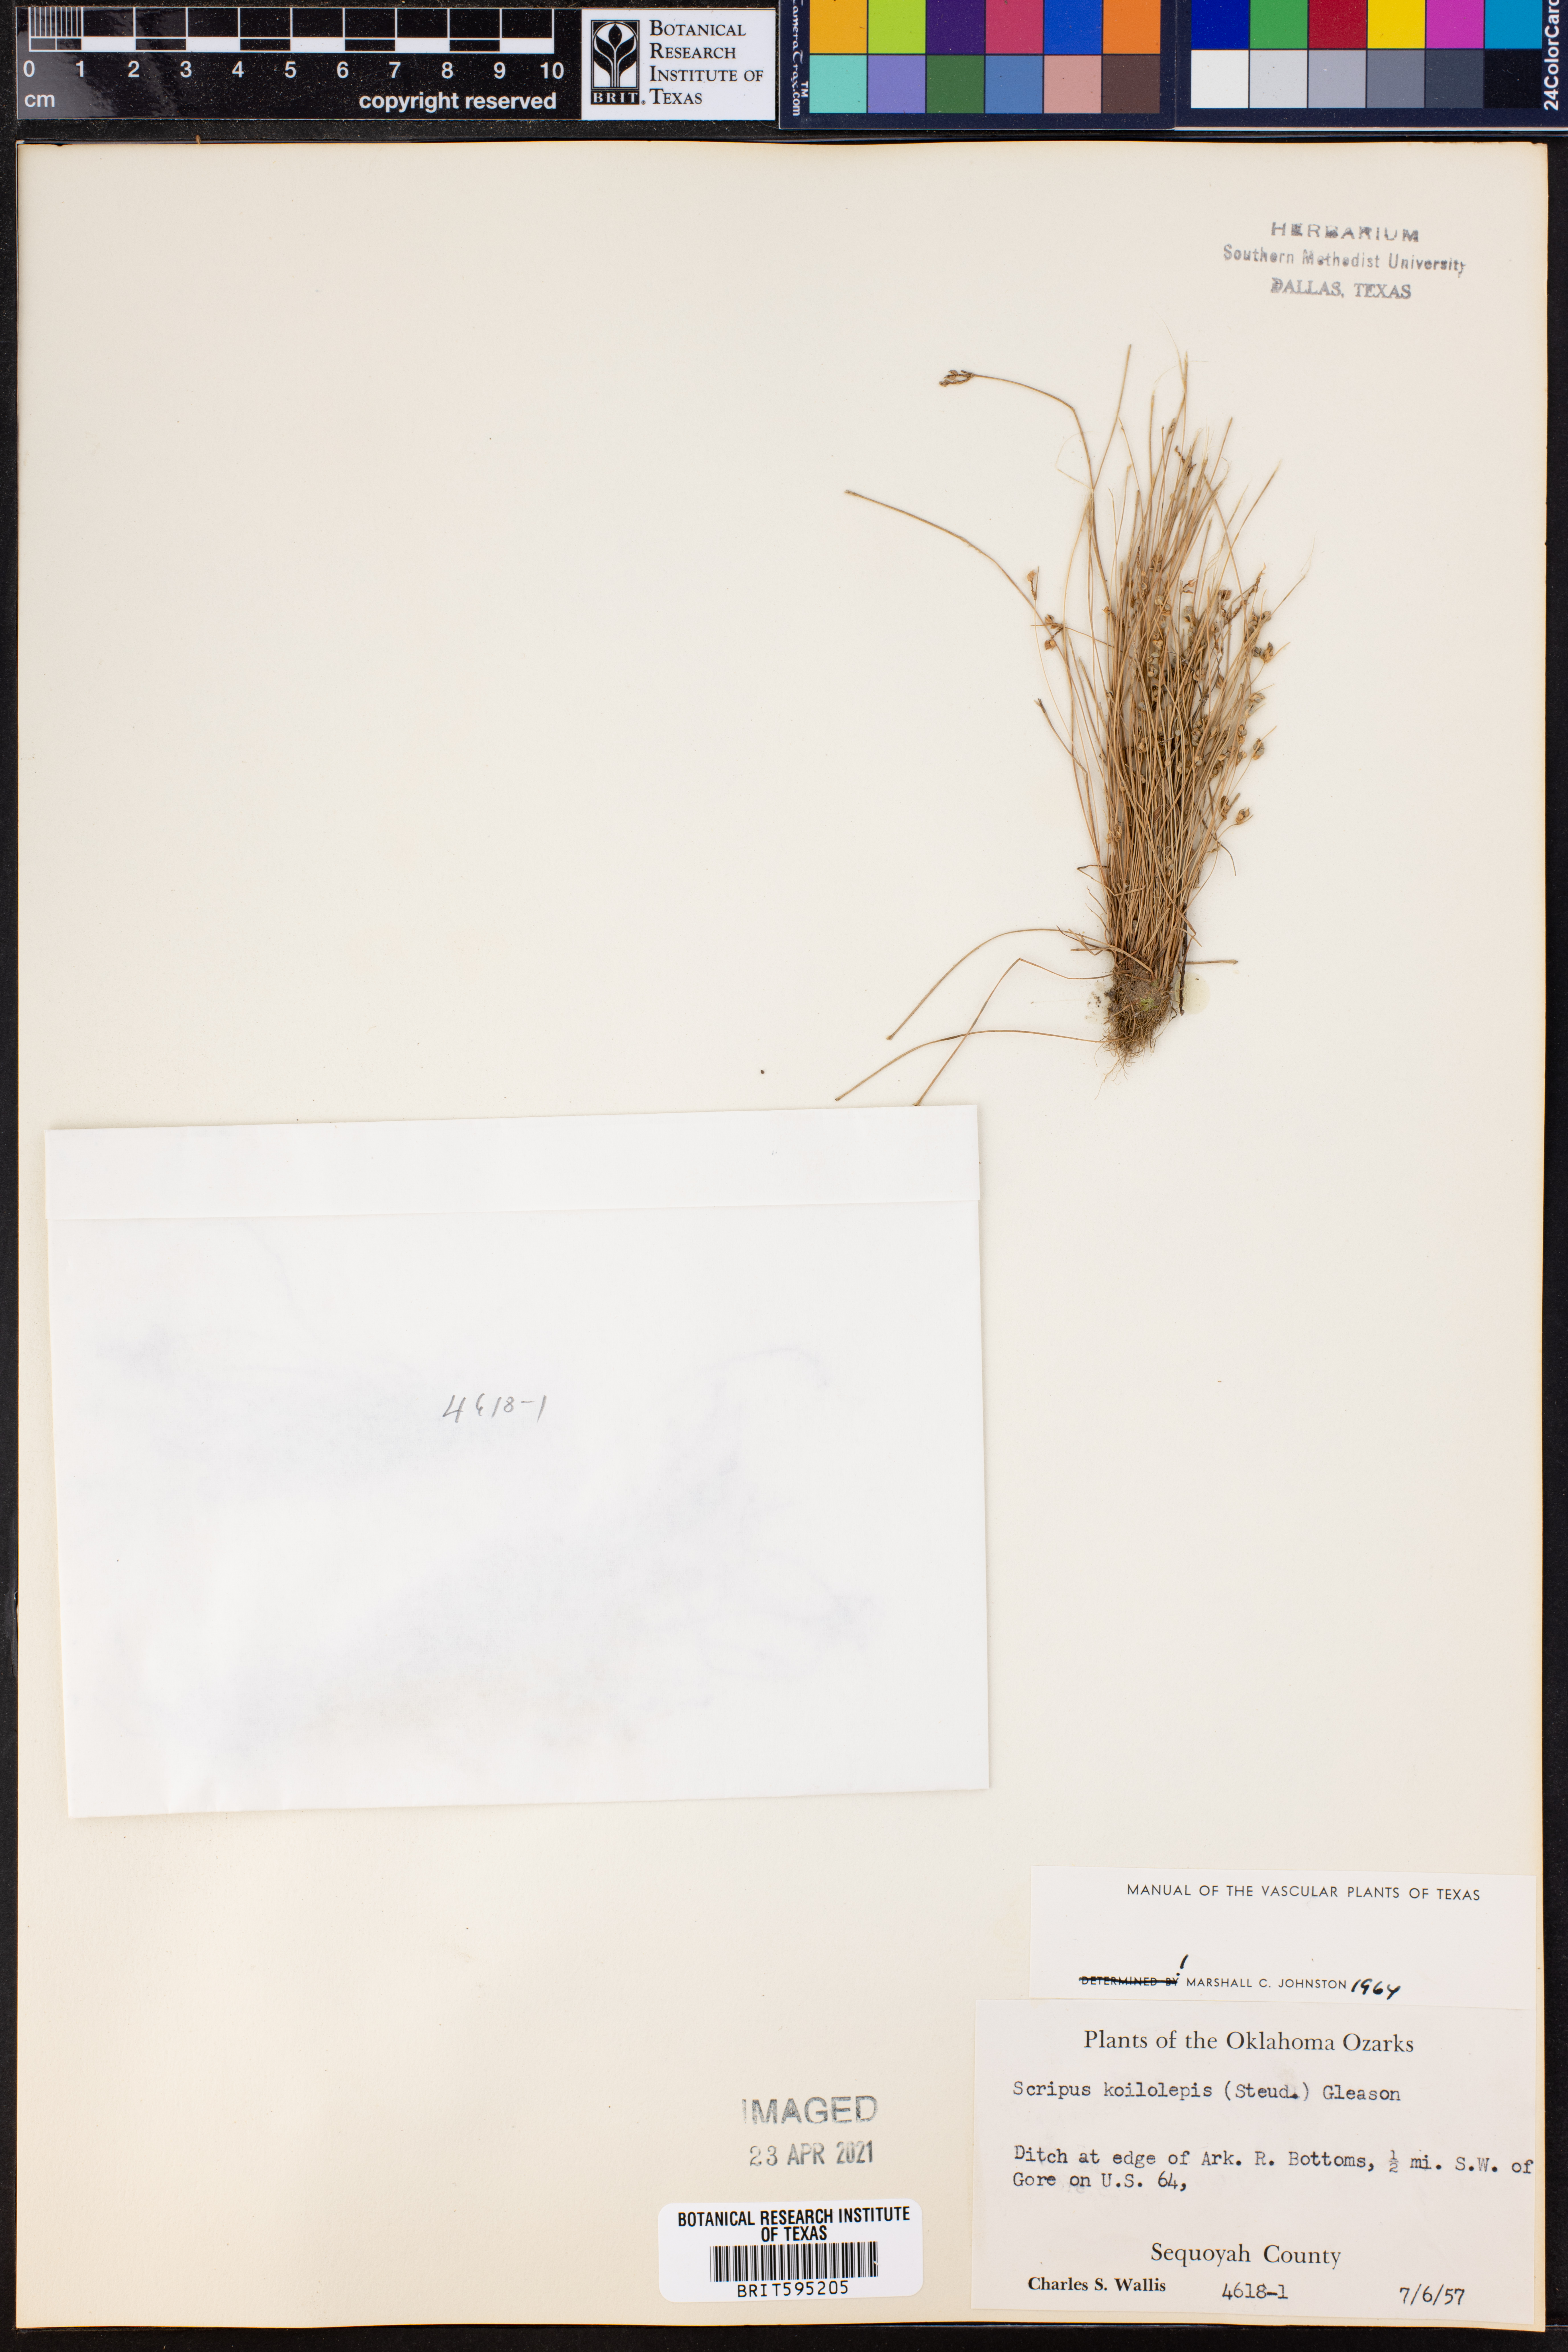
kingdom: Plantae
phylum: Tracheophyta
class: Liliopsida
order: Poales
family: Cyperaceae
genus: Isolepis
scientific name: Isolepis carinata
